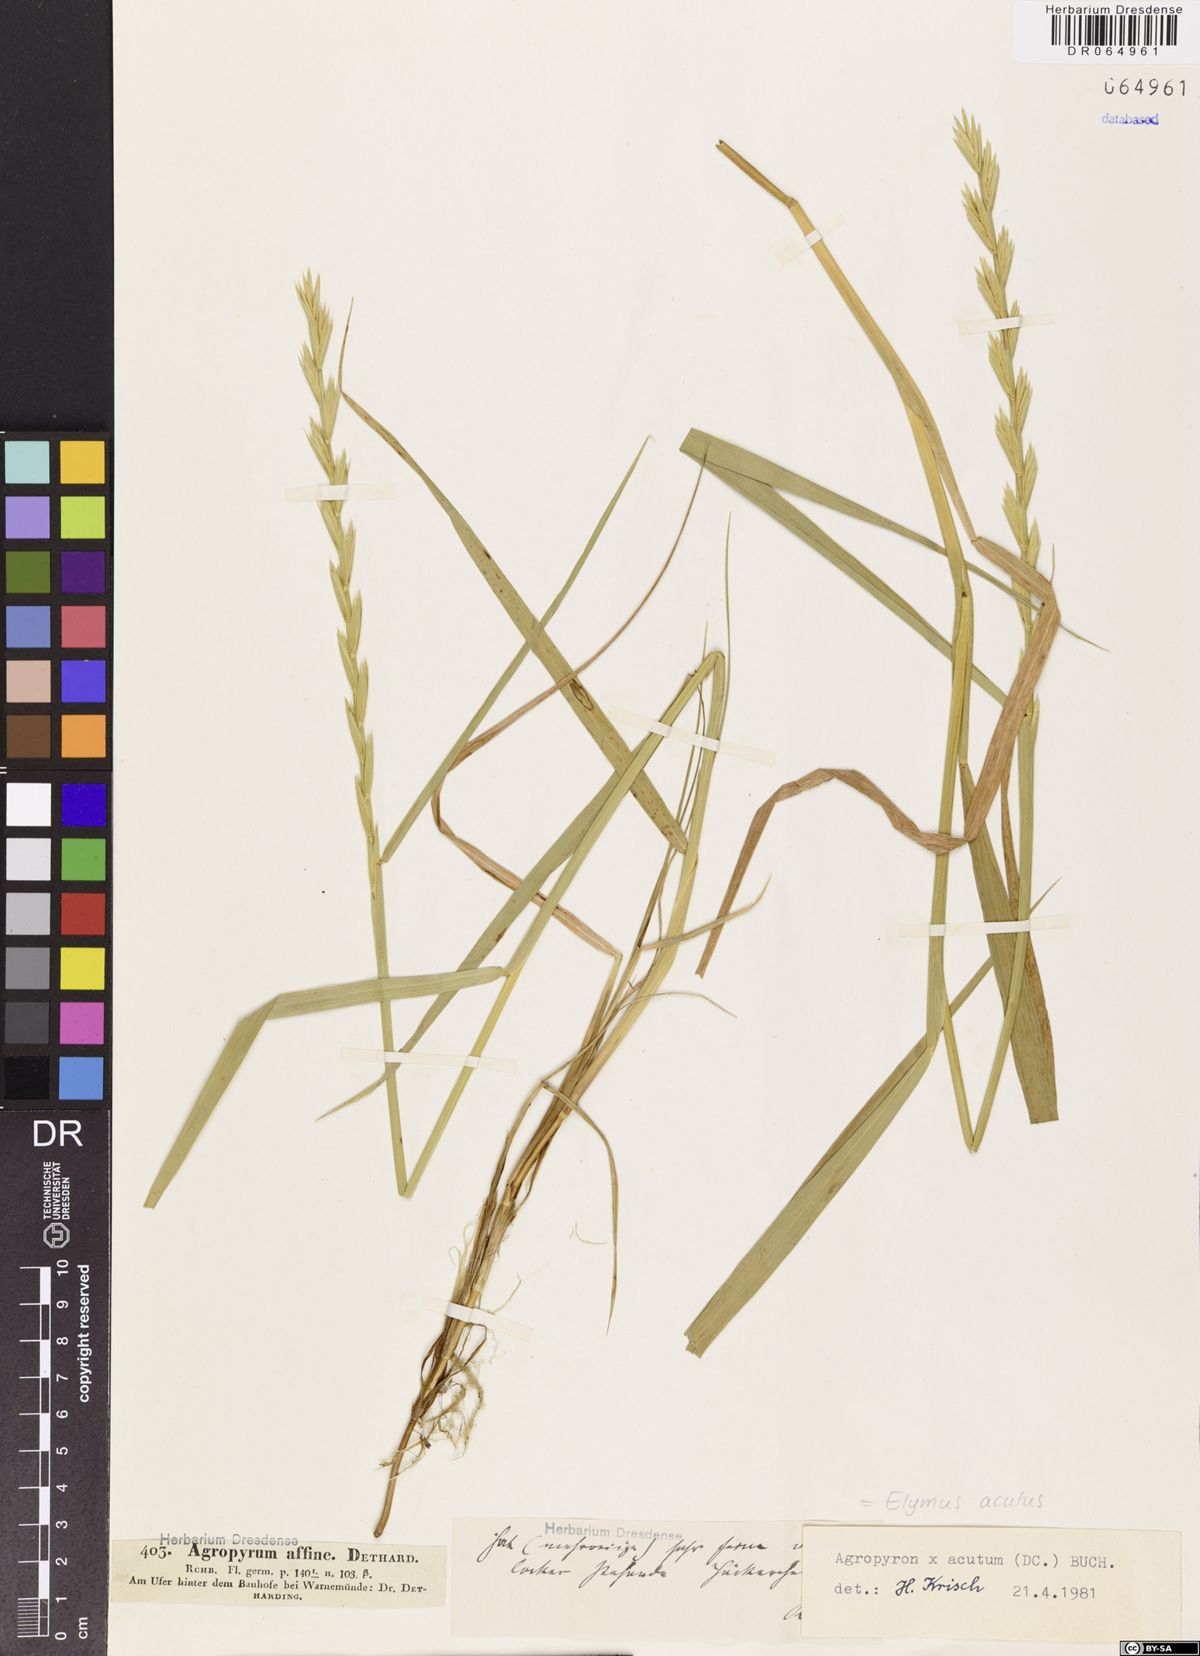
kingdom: Plantae
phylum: Tracheophyta
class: Liliopsida
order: Poales
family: Poaceae
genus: Elymus
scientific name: Elymus pungens
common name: Sea couch
